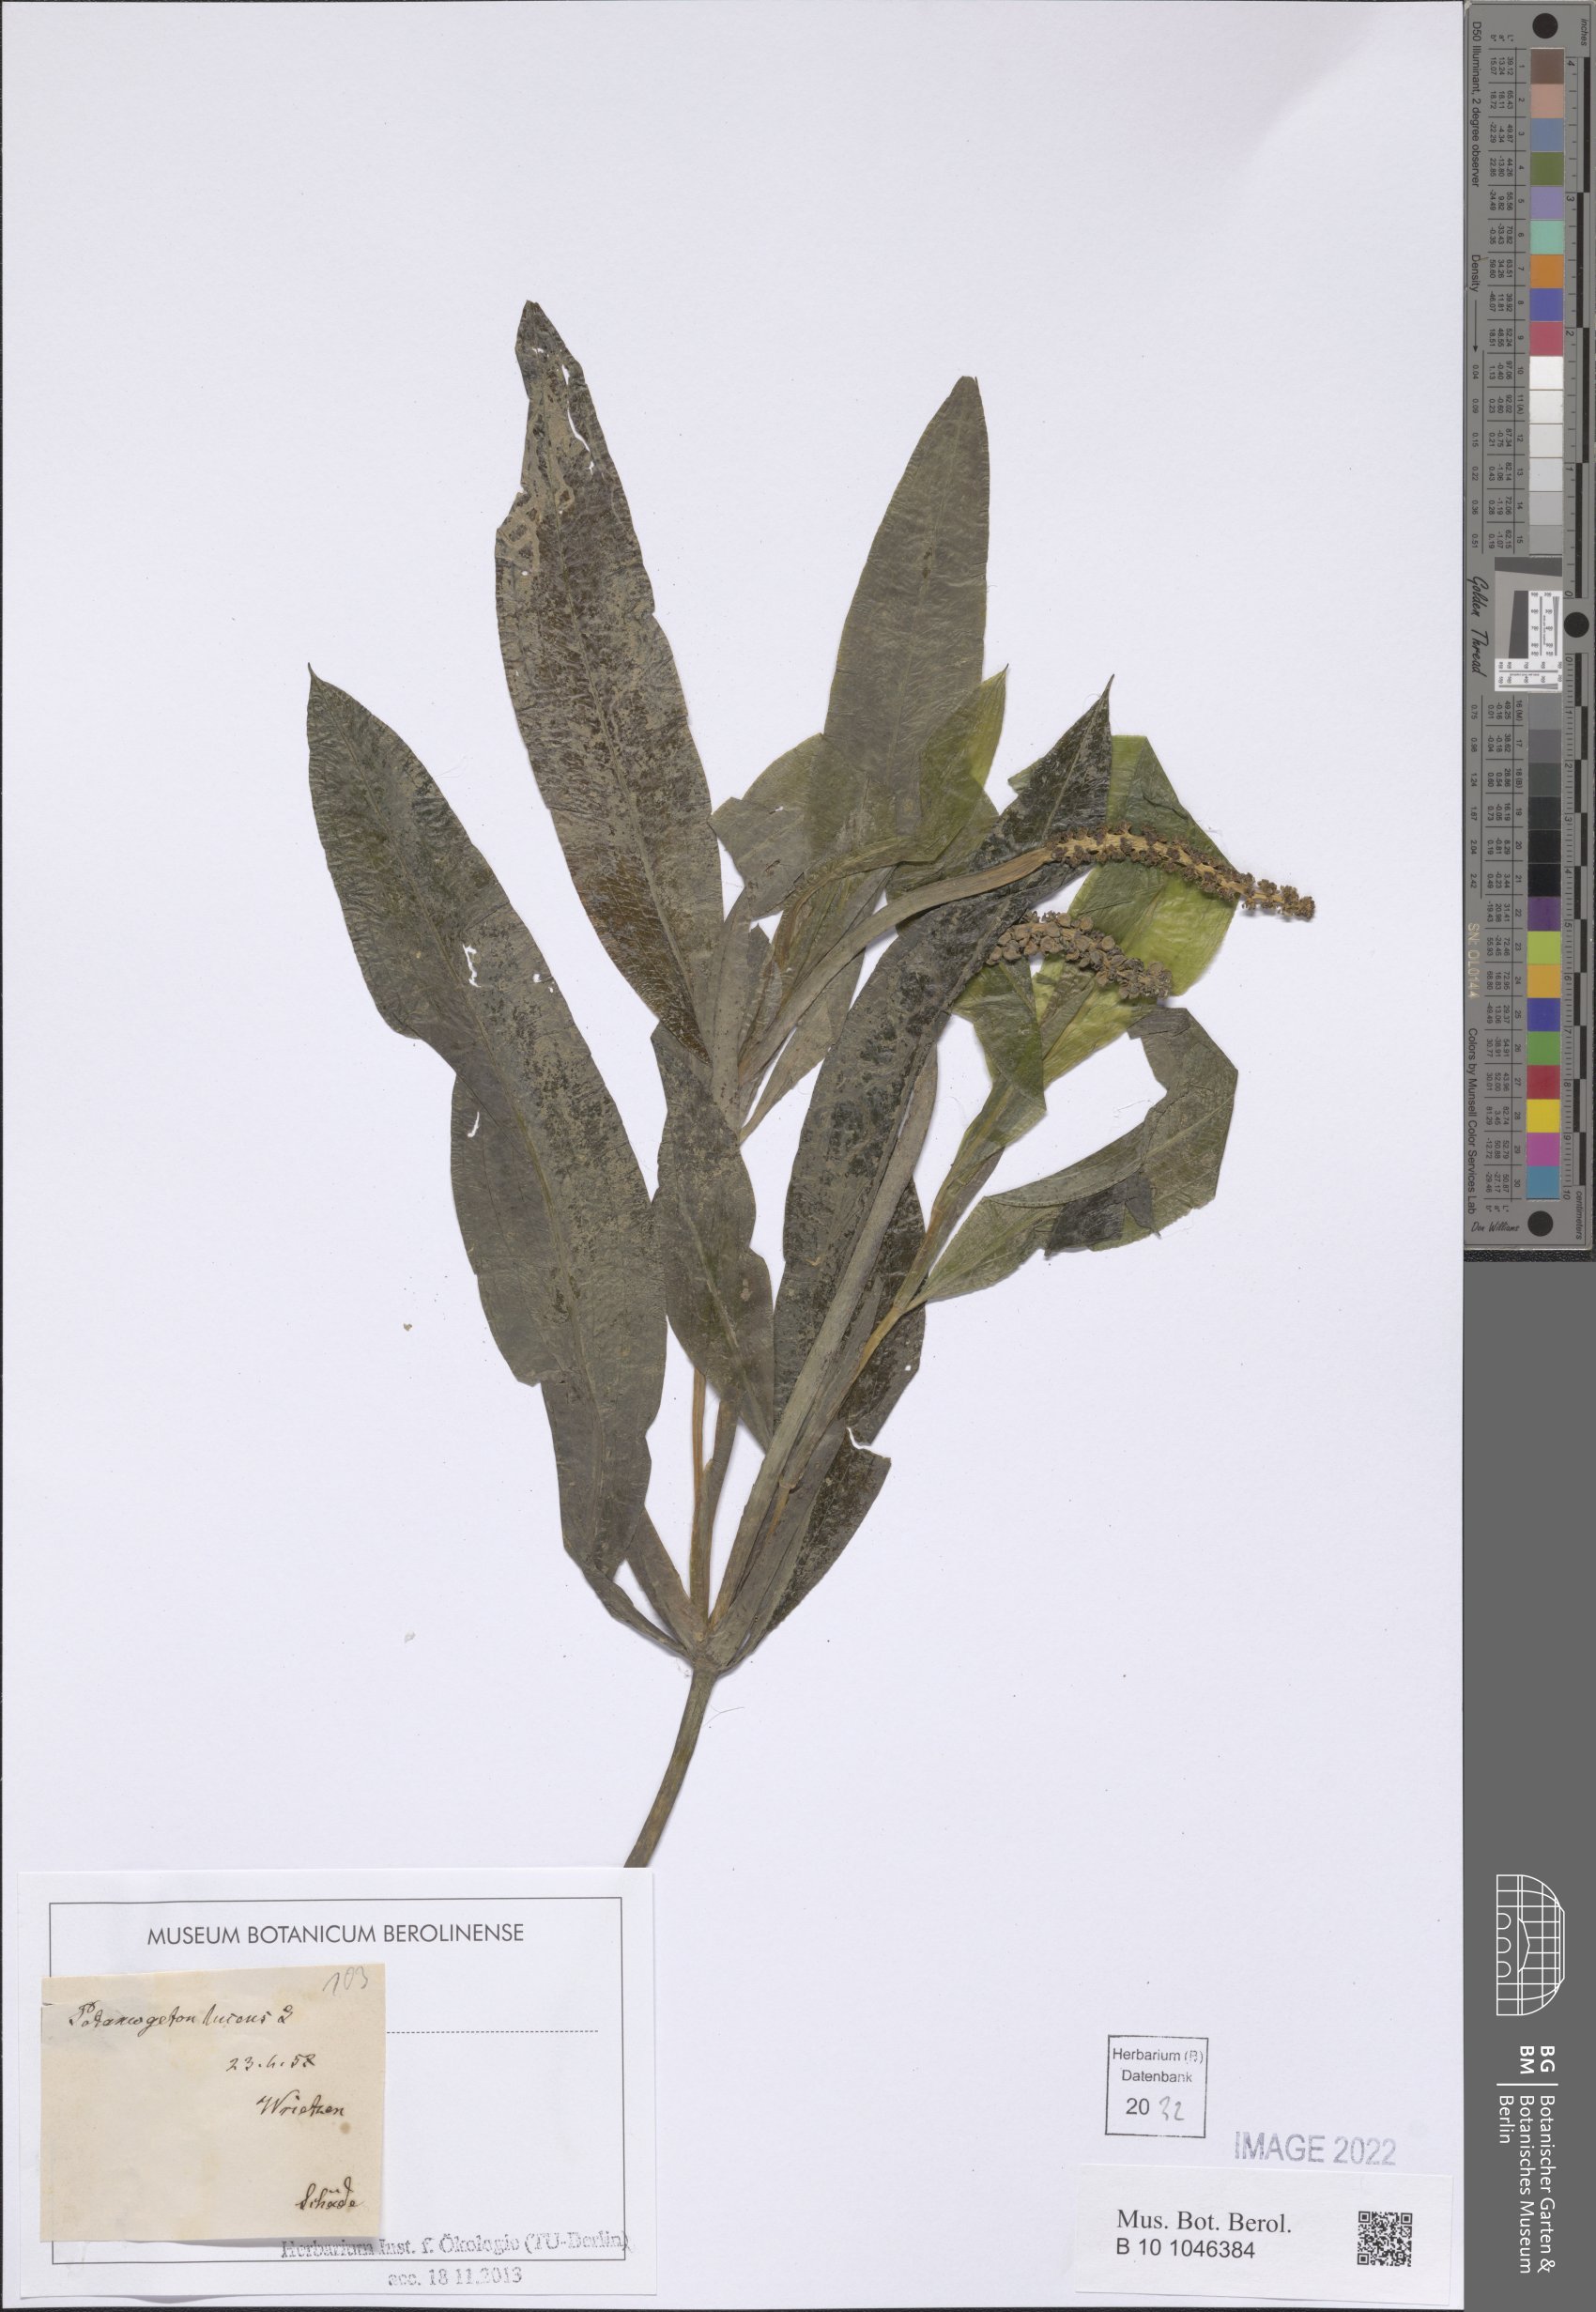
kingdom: Plantae
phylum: Tracheophyta
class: Liliopsida
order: Alismatales
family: Potamogetonaceae
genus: Potamogeton
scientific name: Potamogeton lucens
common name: Shining pondweed
